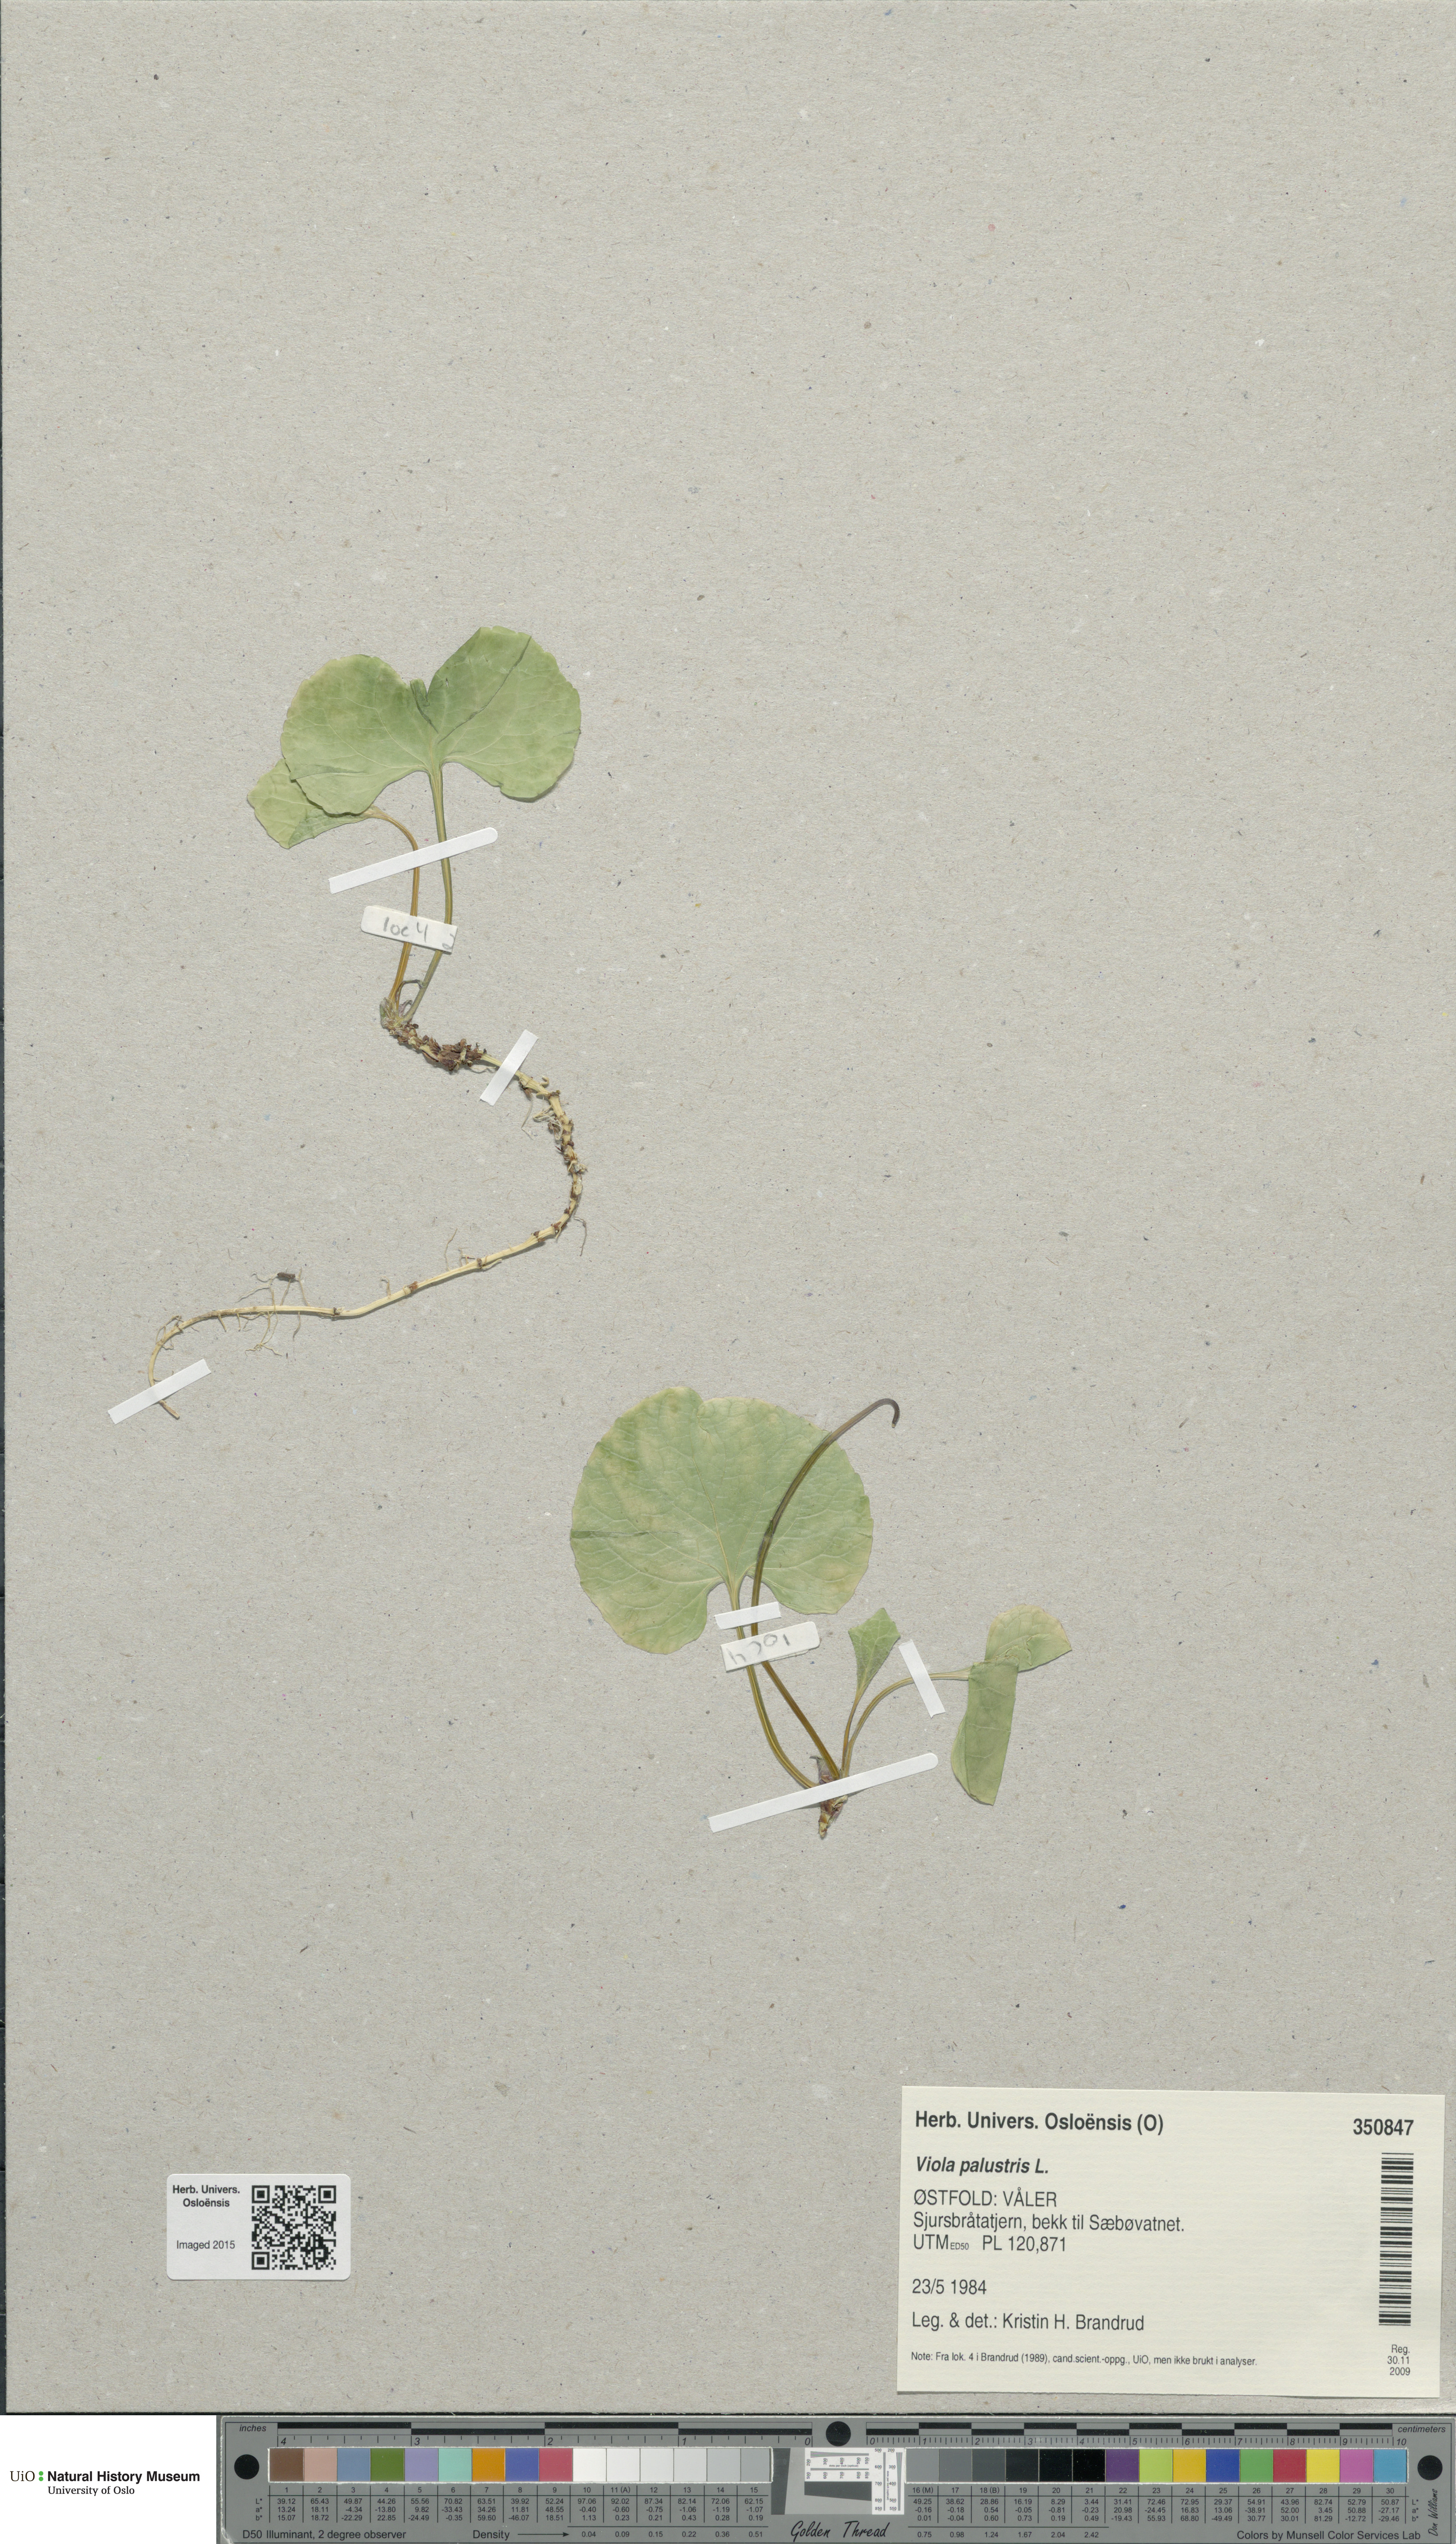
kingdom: Plantae
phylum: Tracheophyta
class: Magnoliopsida
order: Malpighiales
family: Violaceae
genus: Viola
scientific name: Viola palustris
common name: Marsh violet
